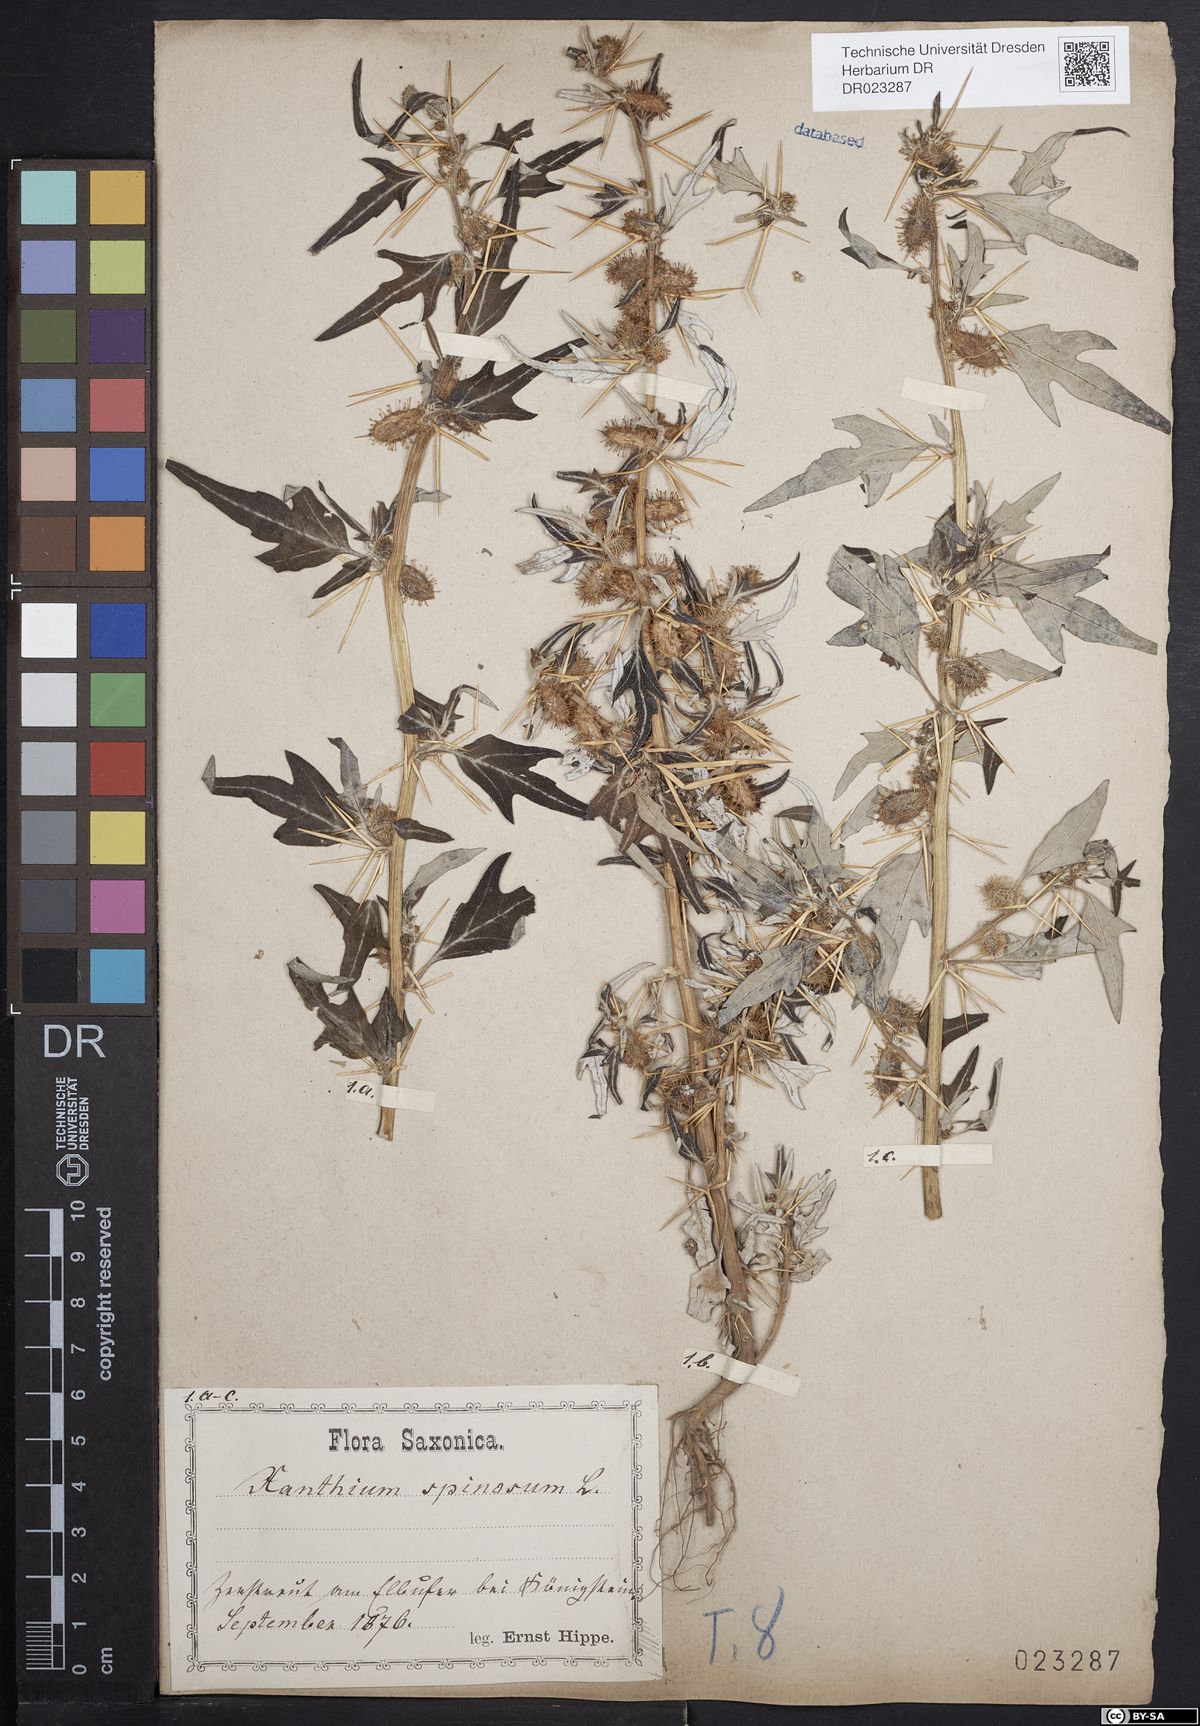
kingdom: Plantae
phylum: Tracheophyta
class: Magnoliopsida
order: Asterales
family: Asteraceae
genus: Xanthium
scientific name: Xanthium spinosum
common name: Spiny cocklebur
